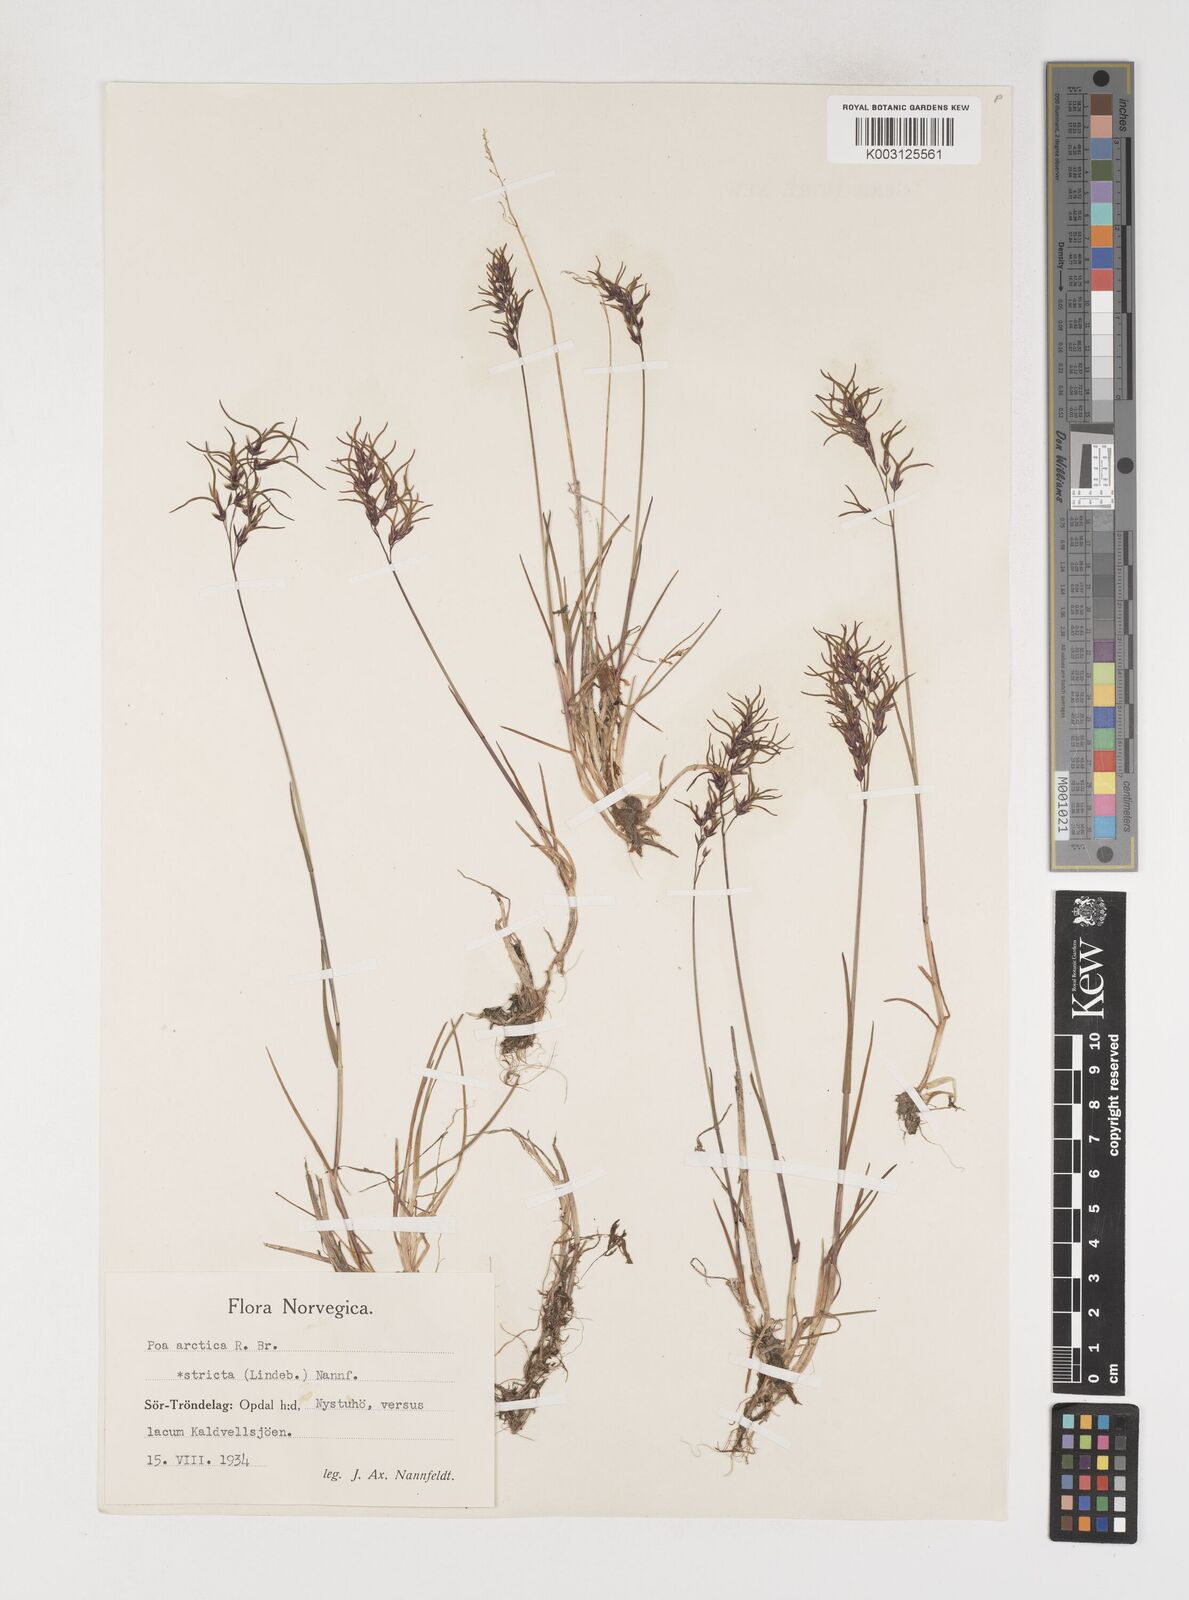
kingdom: Plantae
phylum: Tracheophyta
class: Liliopsida
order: Poales
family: Poaceae
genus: Poa
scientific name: Poa arctica
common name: Arctic bluegrass
